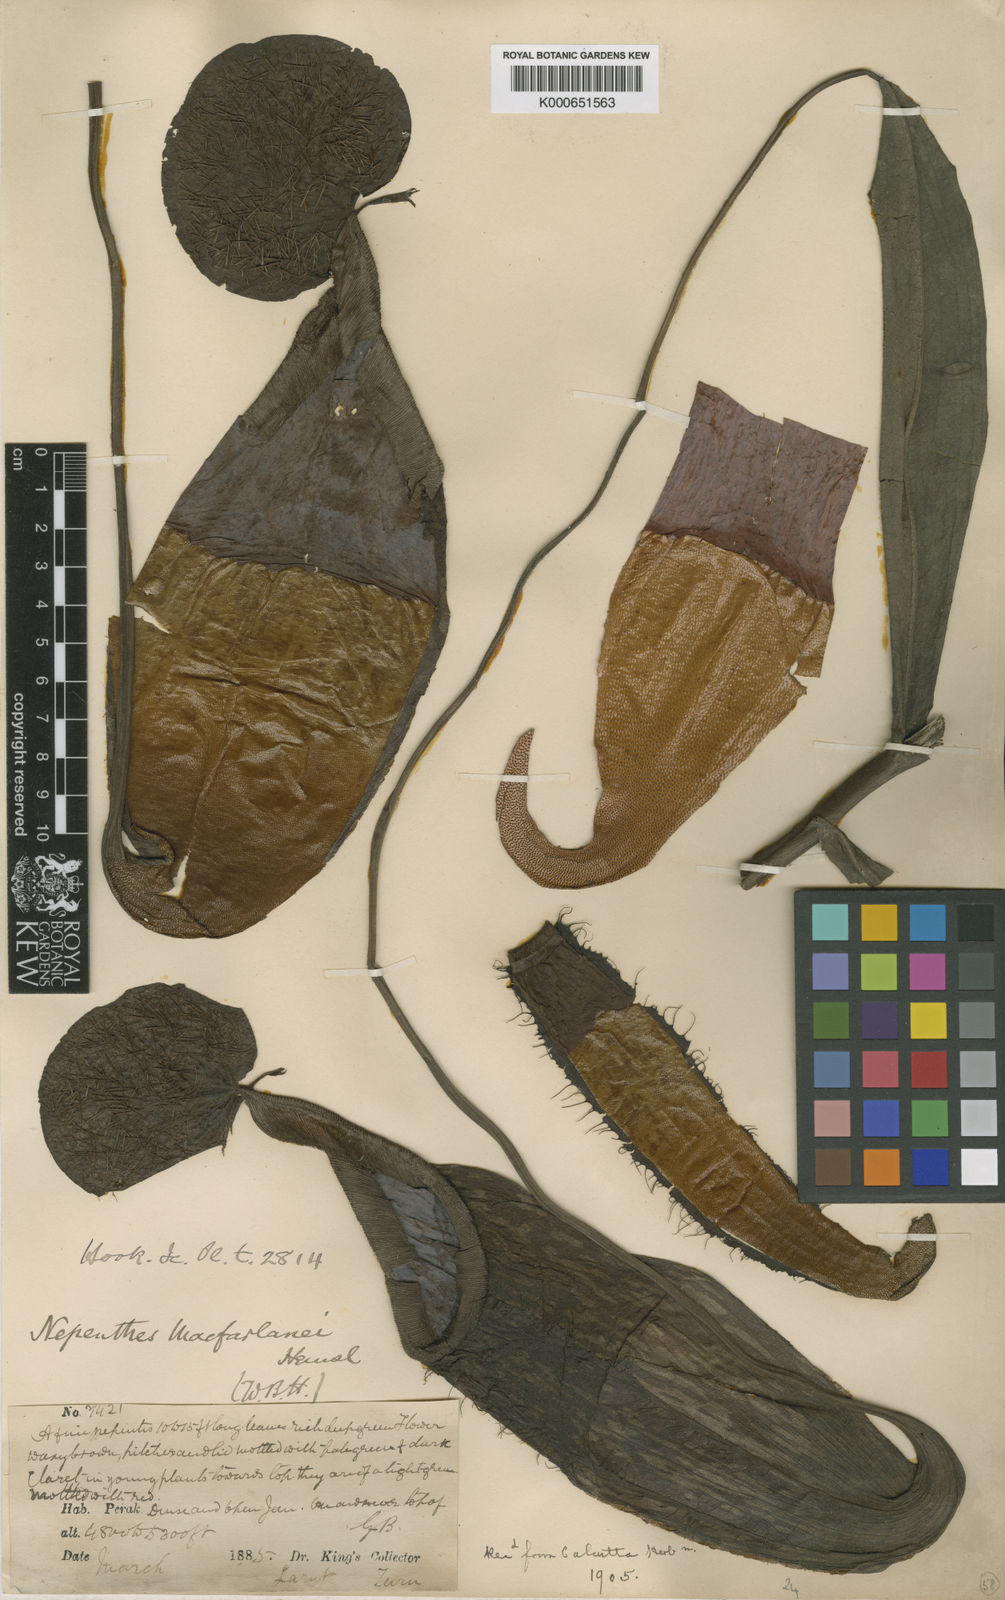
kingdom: Plantae
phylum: Tracheophyta
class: Magnoliopsida
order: Caryophyllales
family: Nepenthaceae
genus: Nepenthes
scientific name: Nepenthes macfarlanei
